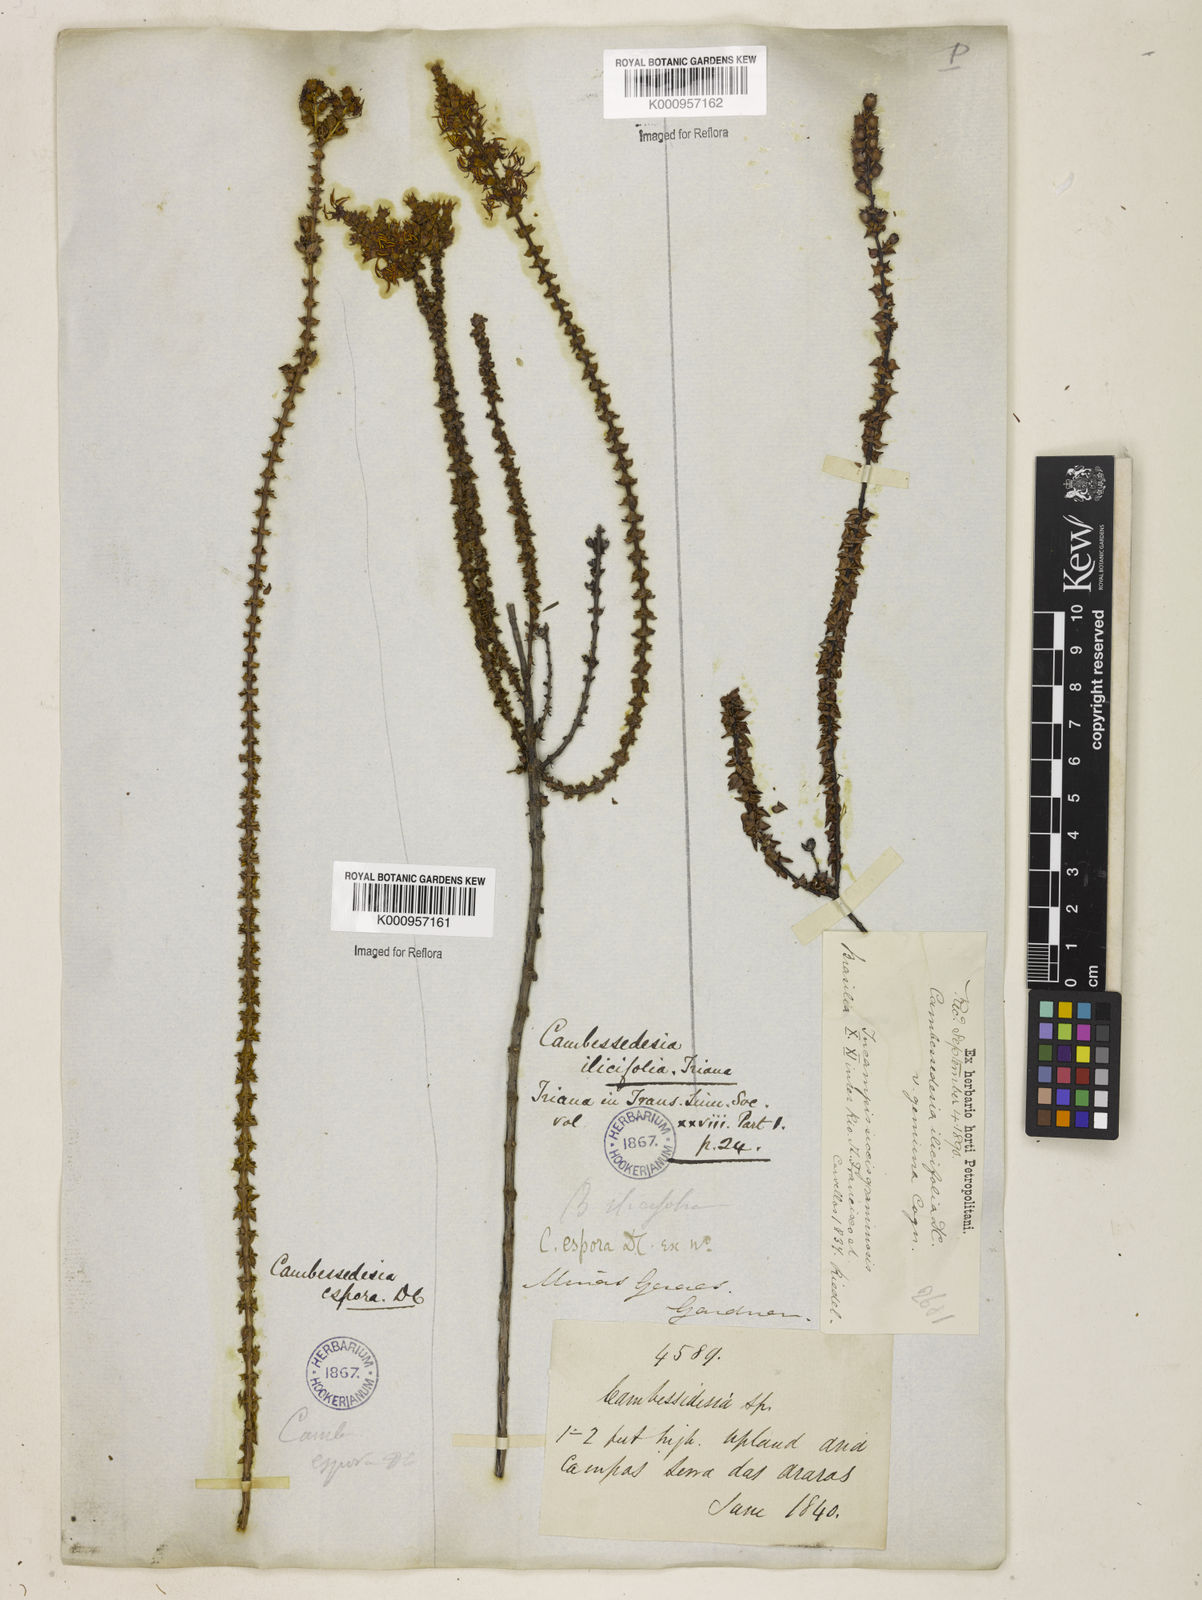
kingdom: Plantae
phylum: Tracheophyta
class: Magnoliopsida
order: Myrtales
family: Melastomataceae
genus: Cambessedesia
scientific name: Cambessedesia espora
